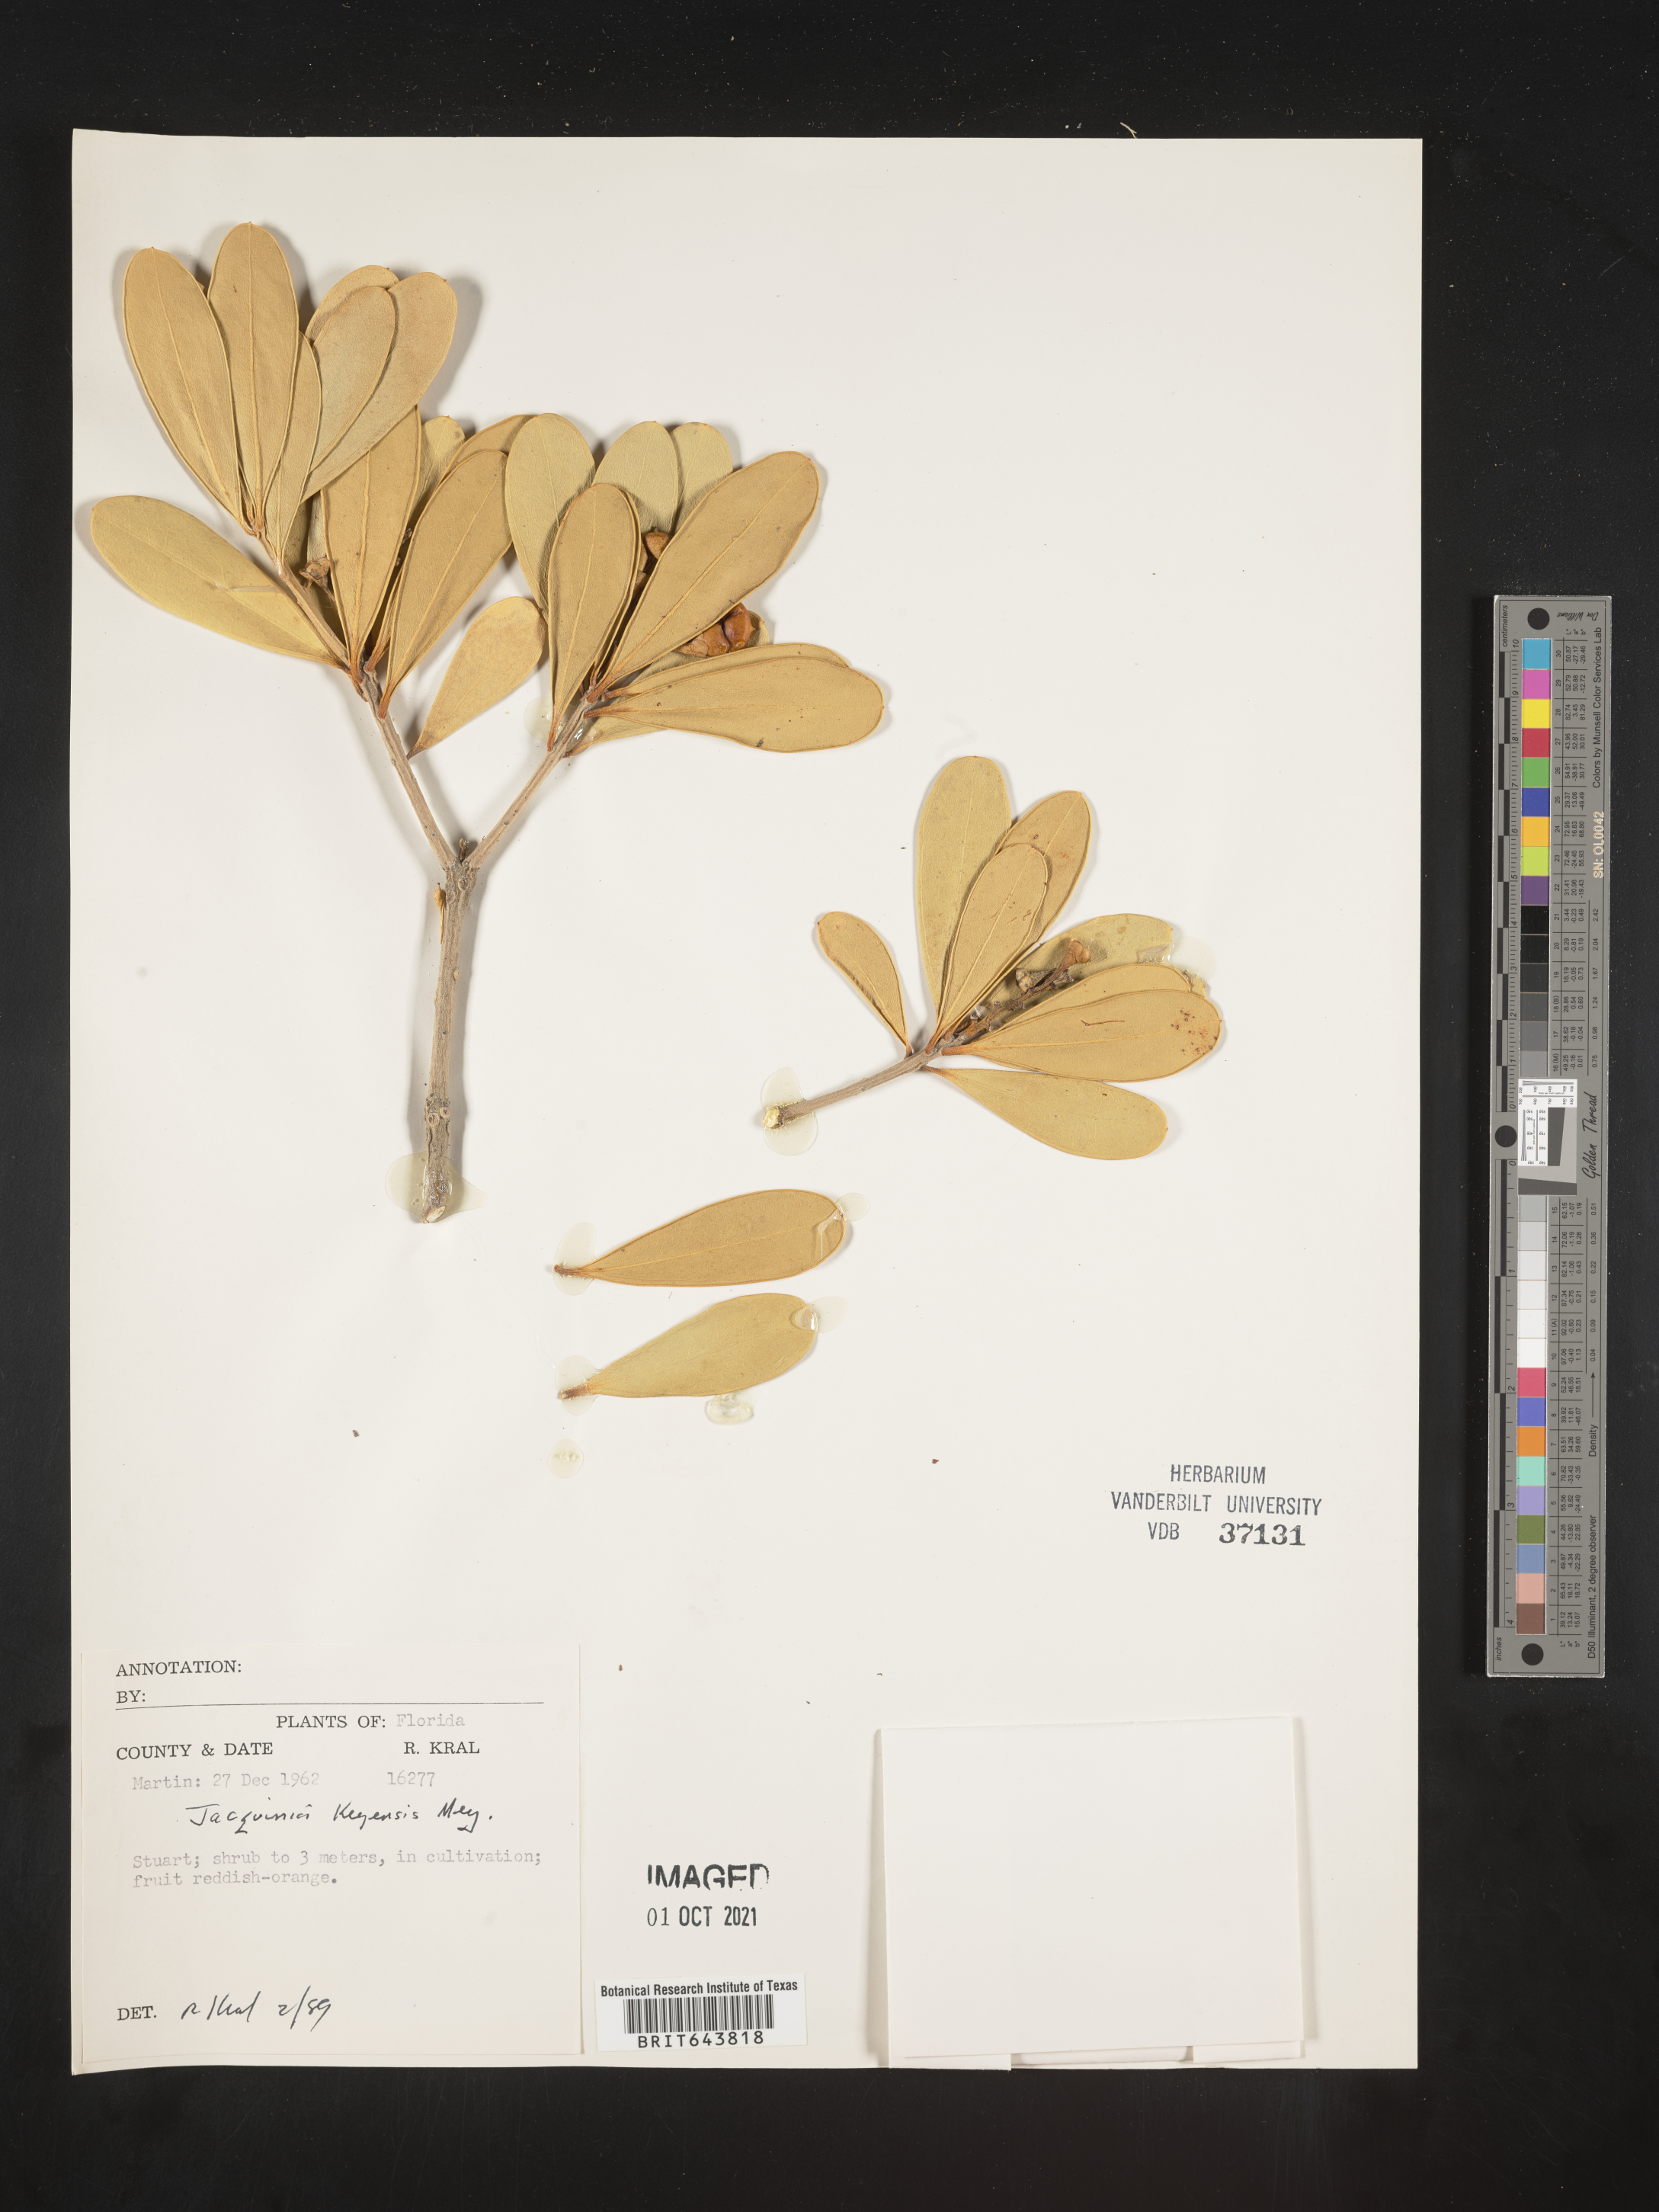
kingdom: Plantae
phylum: Tracheophyta
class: Magnoliopsida
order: Ericales
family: Primulaceae
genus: Jacquinia
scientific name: Jacquinia
